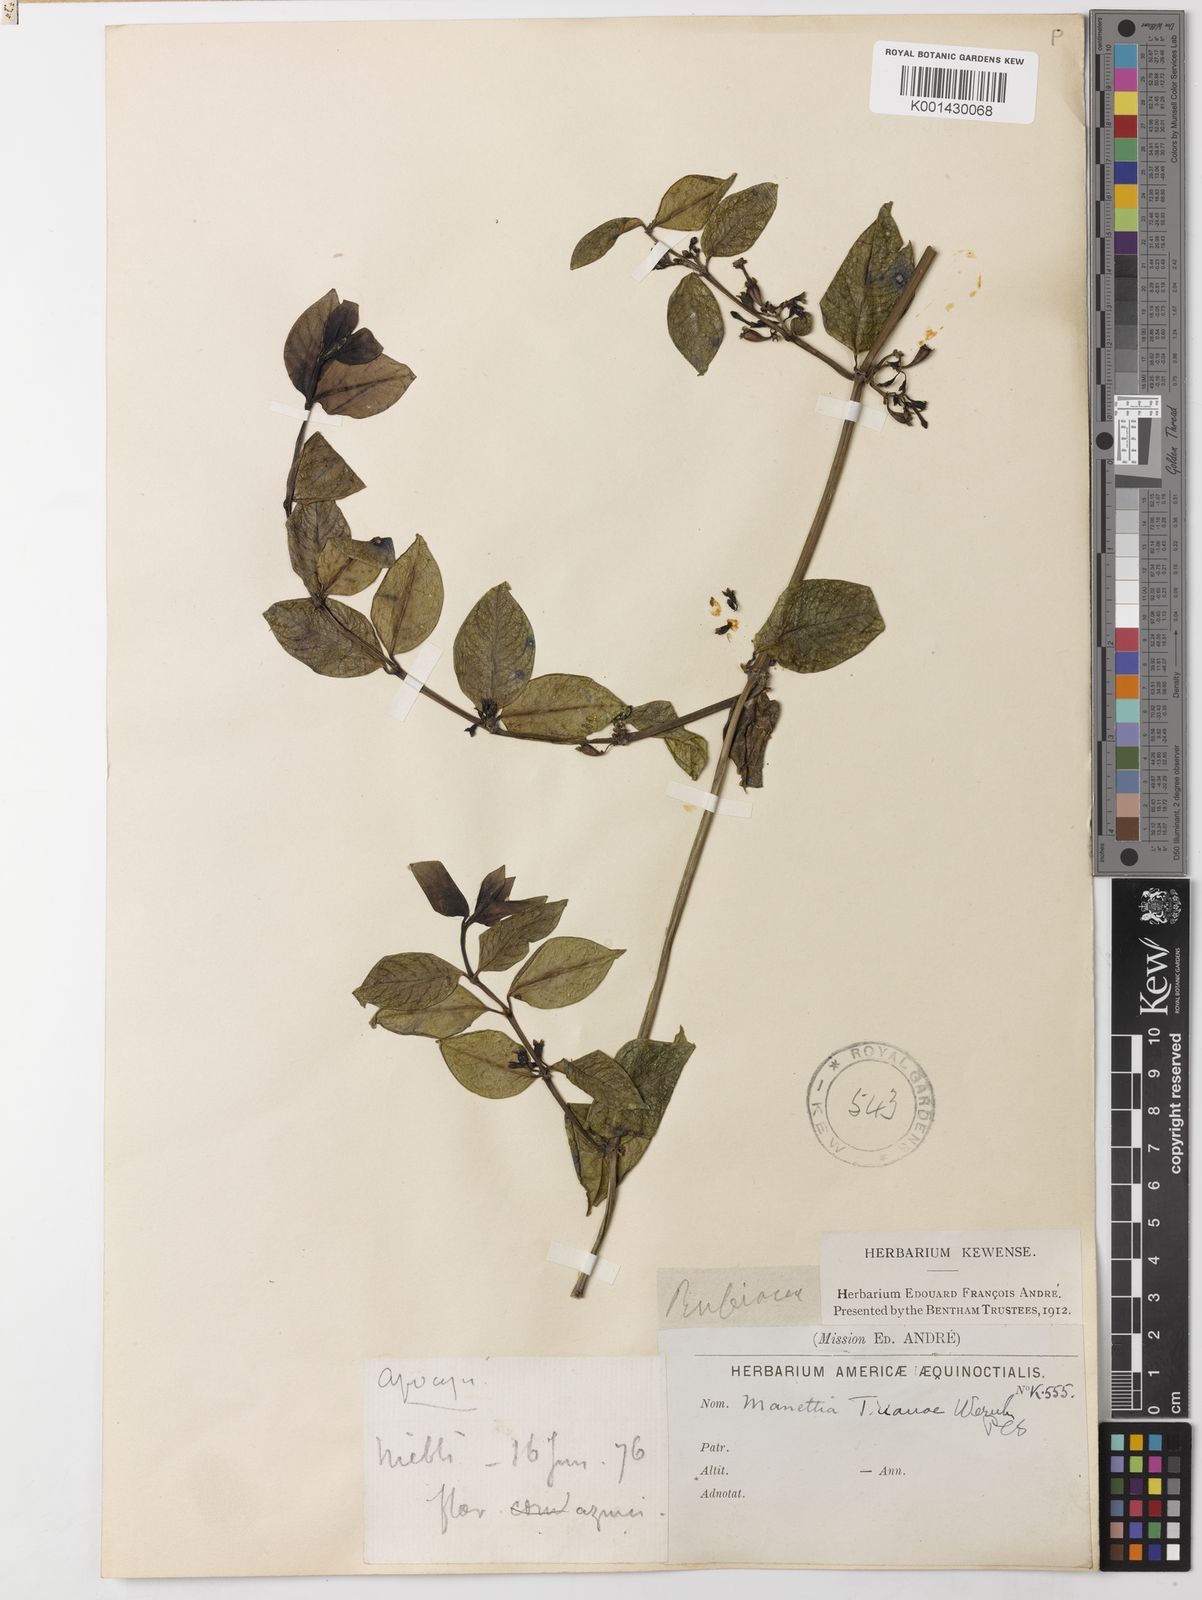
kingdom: Plantae
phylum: Tracheophyta
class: Magnoliopsida
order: Gentianales
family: Rubiaceae
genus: Manettia
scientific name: Manettia trianae
